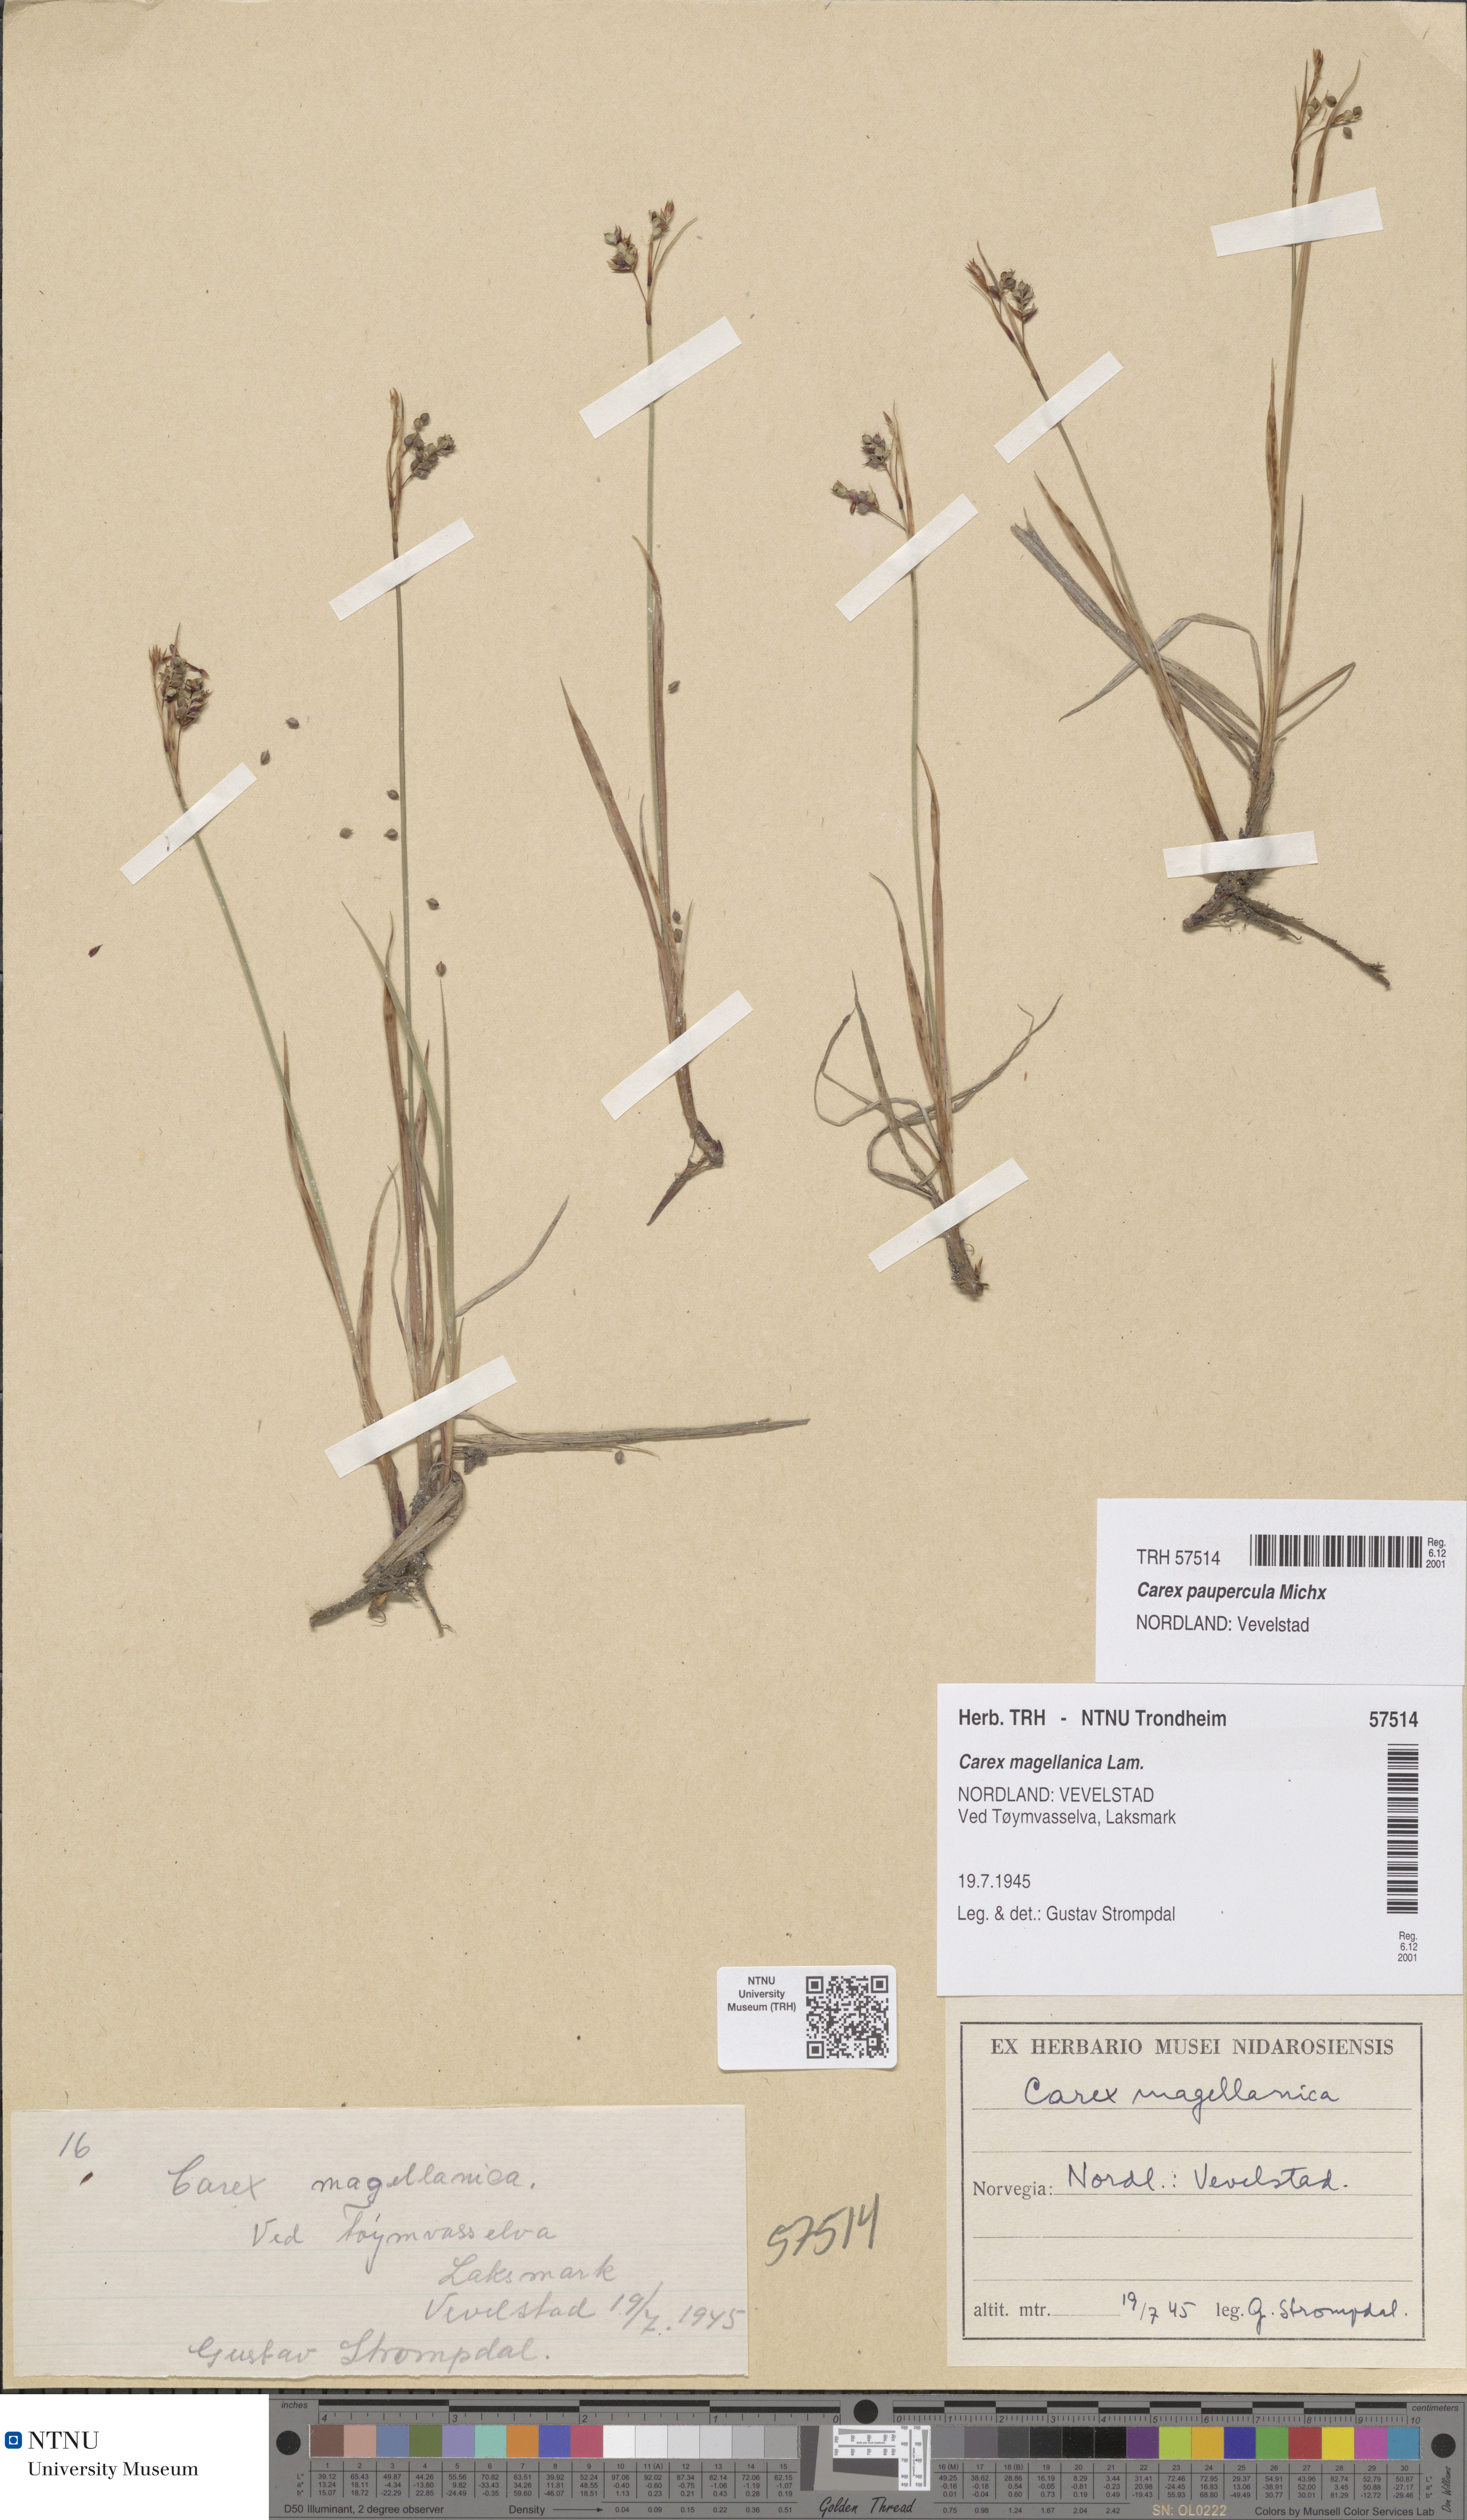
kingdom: Plantae
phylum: Tracheophyta
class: Liliopsida
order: Poales
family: Cyperaceae
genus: Carex
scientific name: Carex magellanica
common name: Bog sedge
